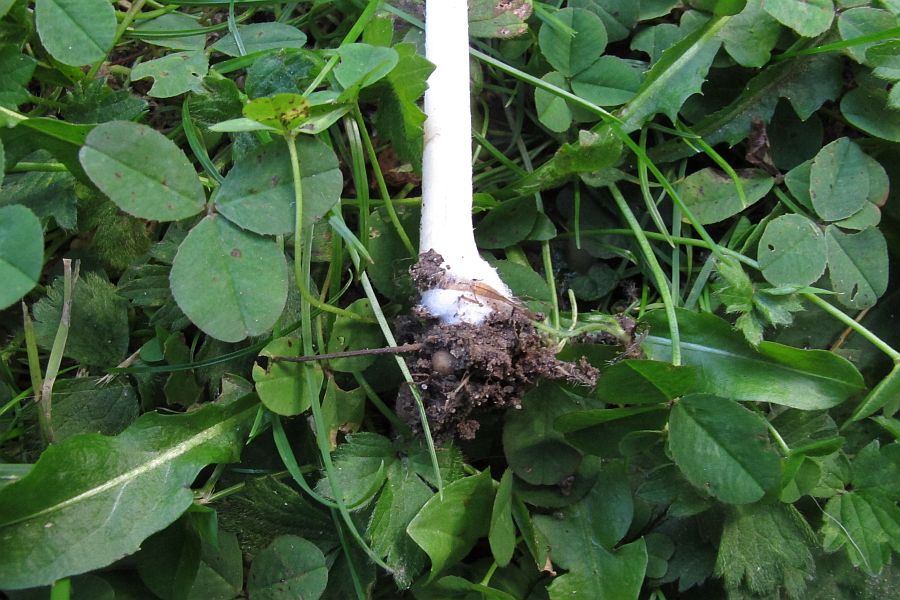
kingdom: Fungi
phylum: Basidiomycota
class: Agaricomycetes
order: Agaricales
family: Psathyrellaceae
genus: Candolleomyces
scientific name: Candolleomyces candolleanus
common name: Candolles mørkhat
